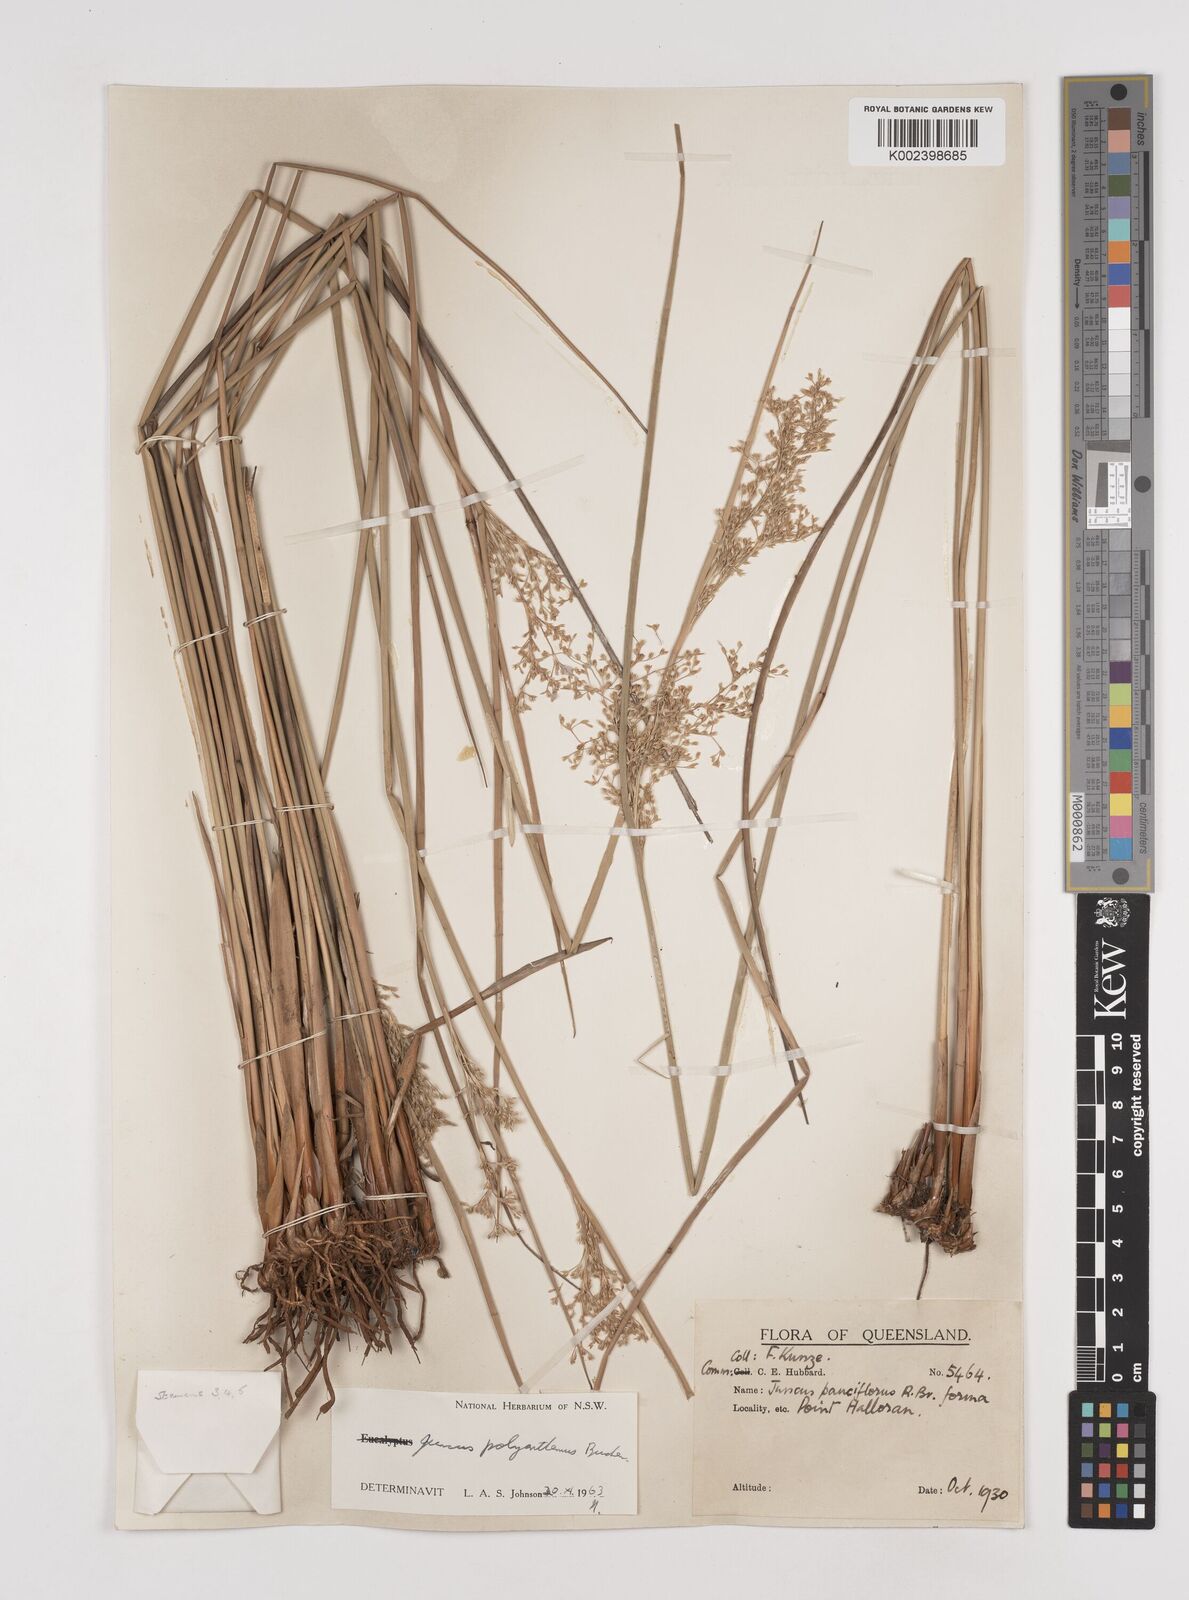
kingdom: Plantae
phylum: Tracheophyta
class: Liliopsida
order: Poales
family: Juncaceae
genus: Juncus
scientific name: Juncus polyanthemus
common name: Manyflower rush
